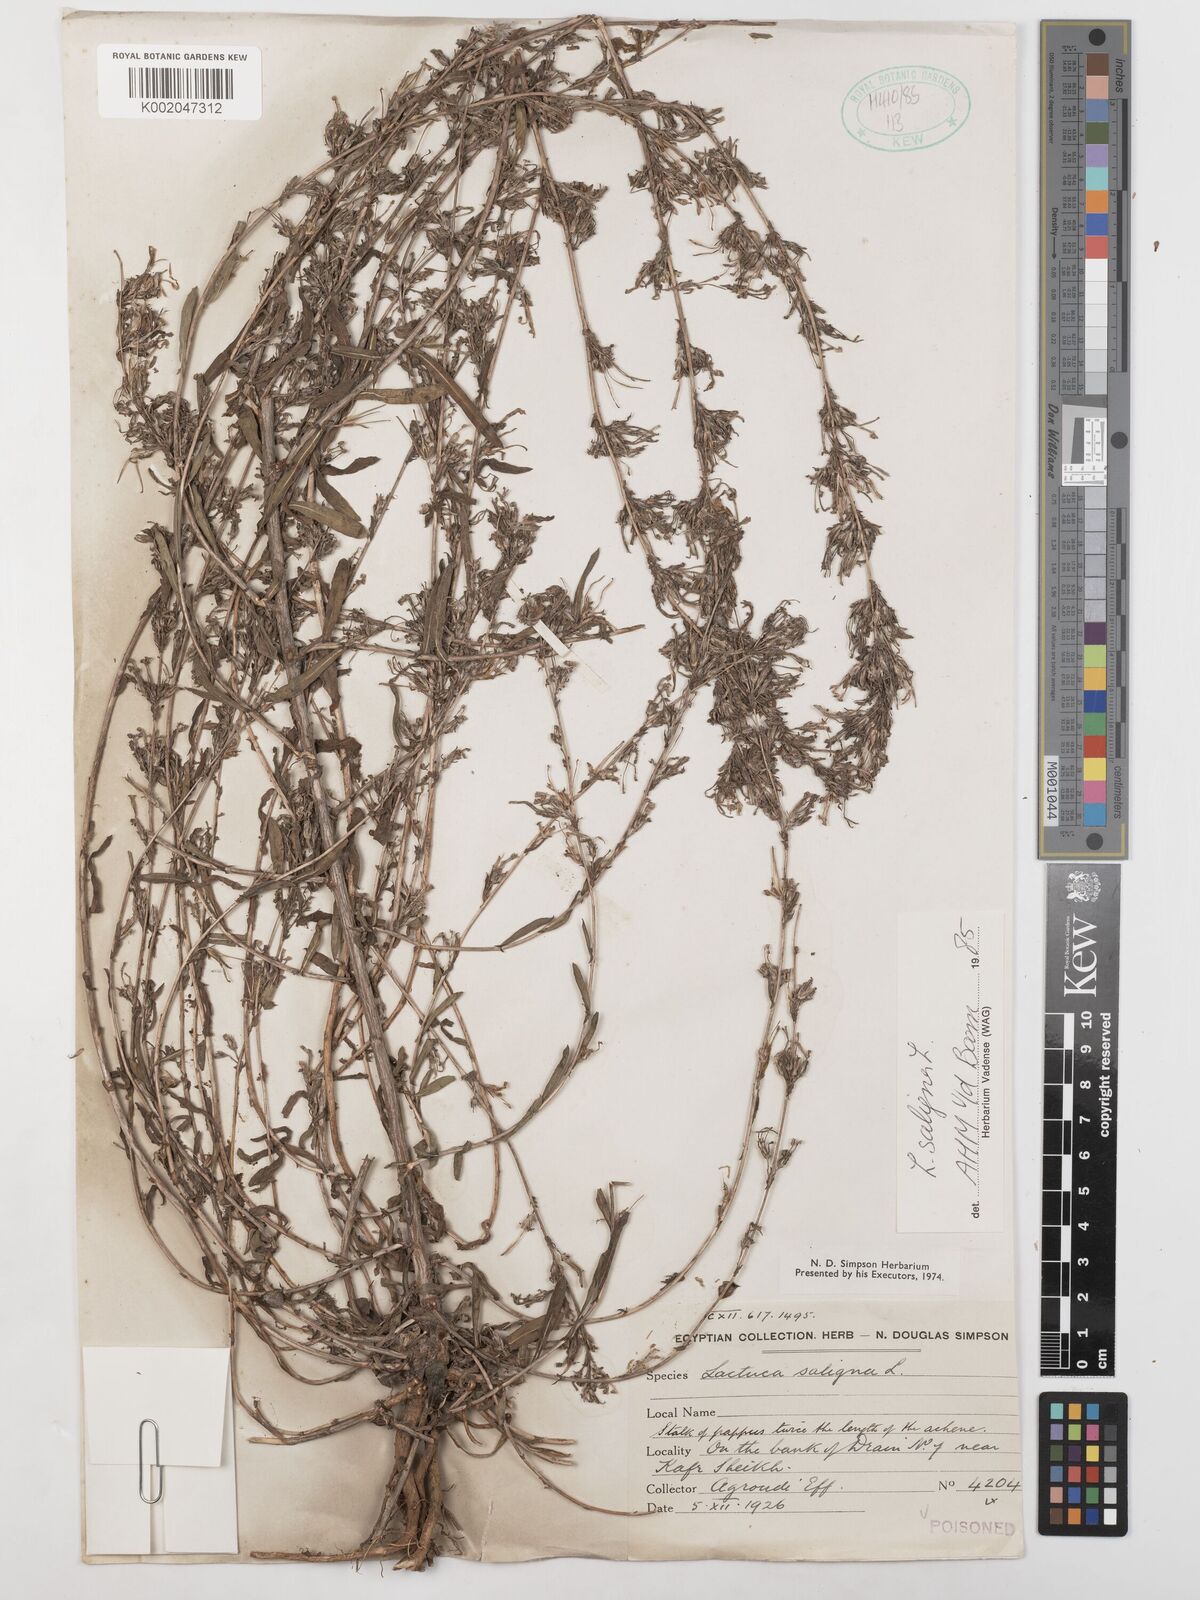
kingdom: Plantae
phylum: Tracheophyta
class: Magnoliopsida
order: Asterales
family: Asteraceae
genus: Lactuca
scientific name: Lactuca saligna
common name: Wild lettuce
